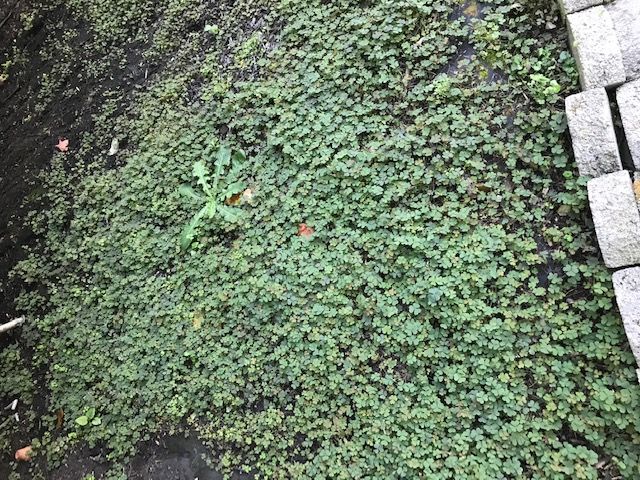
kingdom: Plantae
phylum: Tracheophyta
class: Magnoliopsida
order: Oxalidales
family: Oxalidaceae
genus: Oxalis
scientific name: Oxalis corniculata
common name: Creeping Woodsorrel
